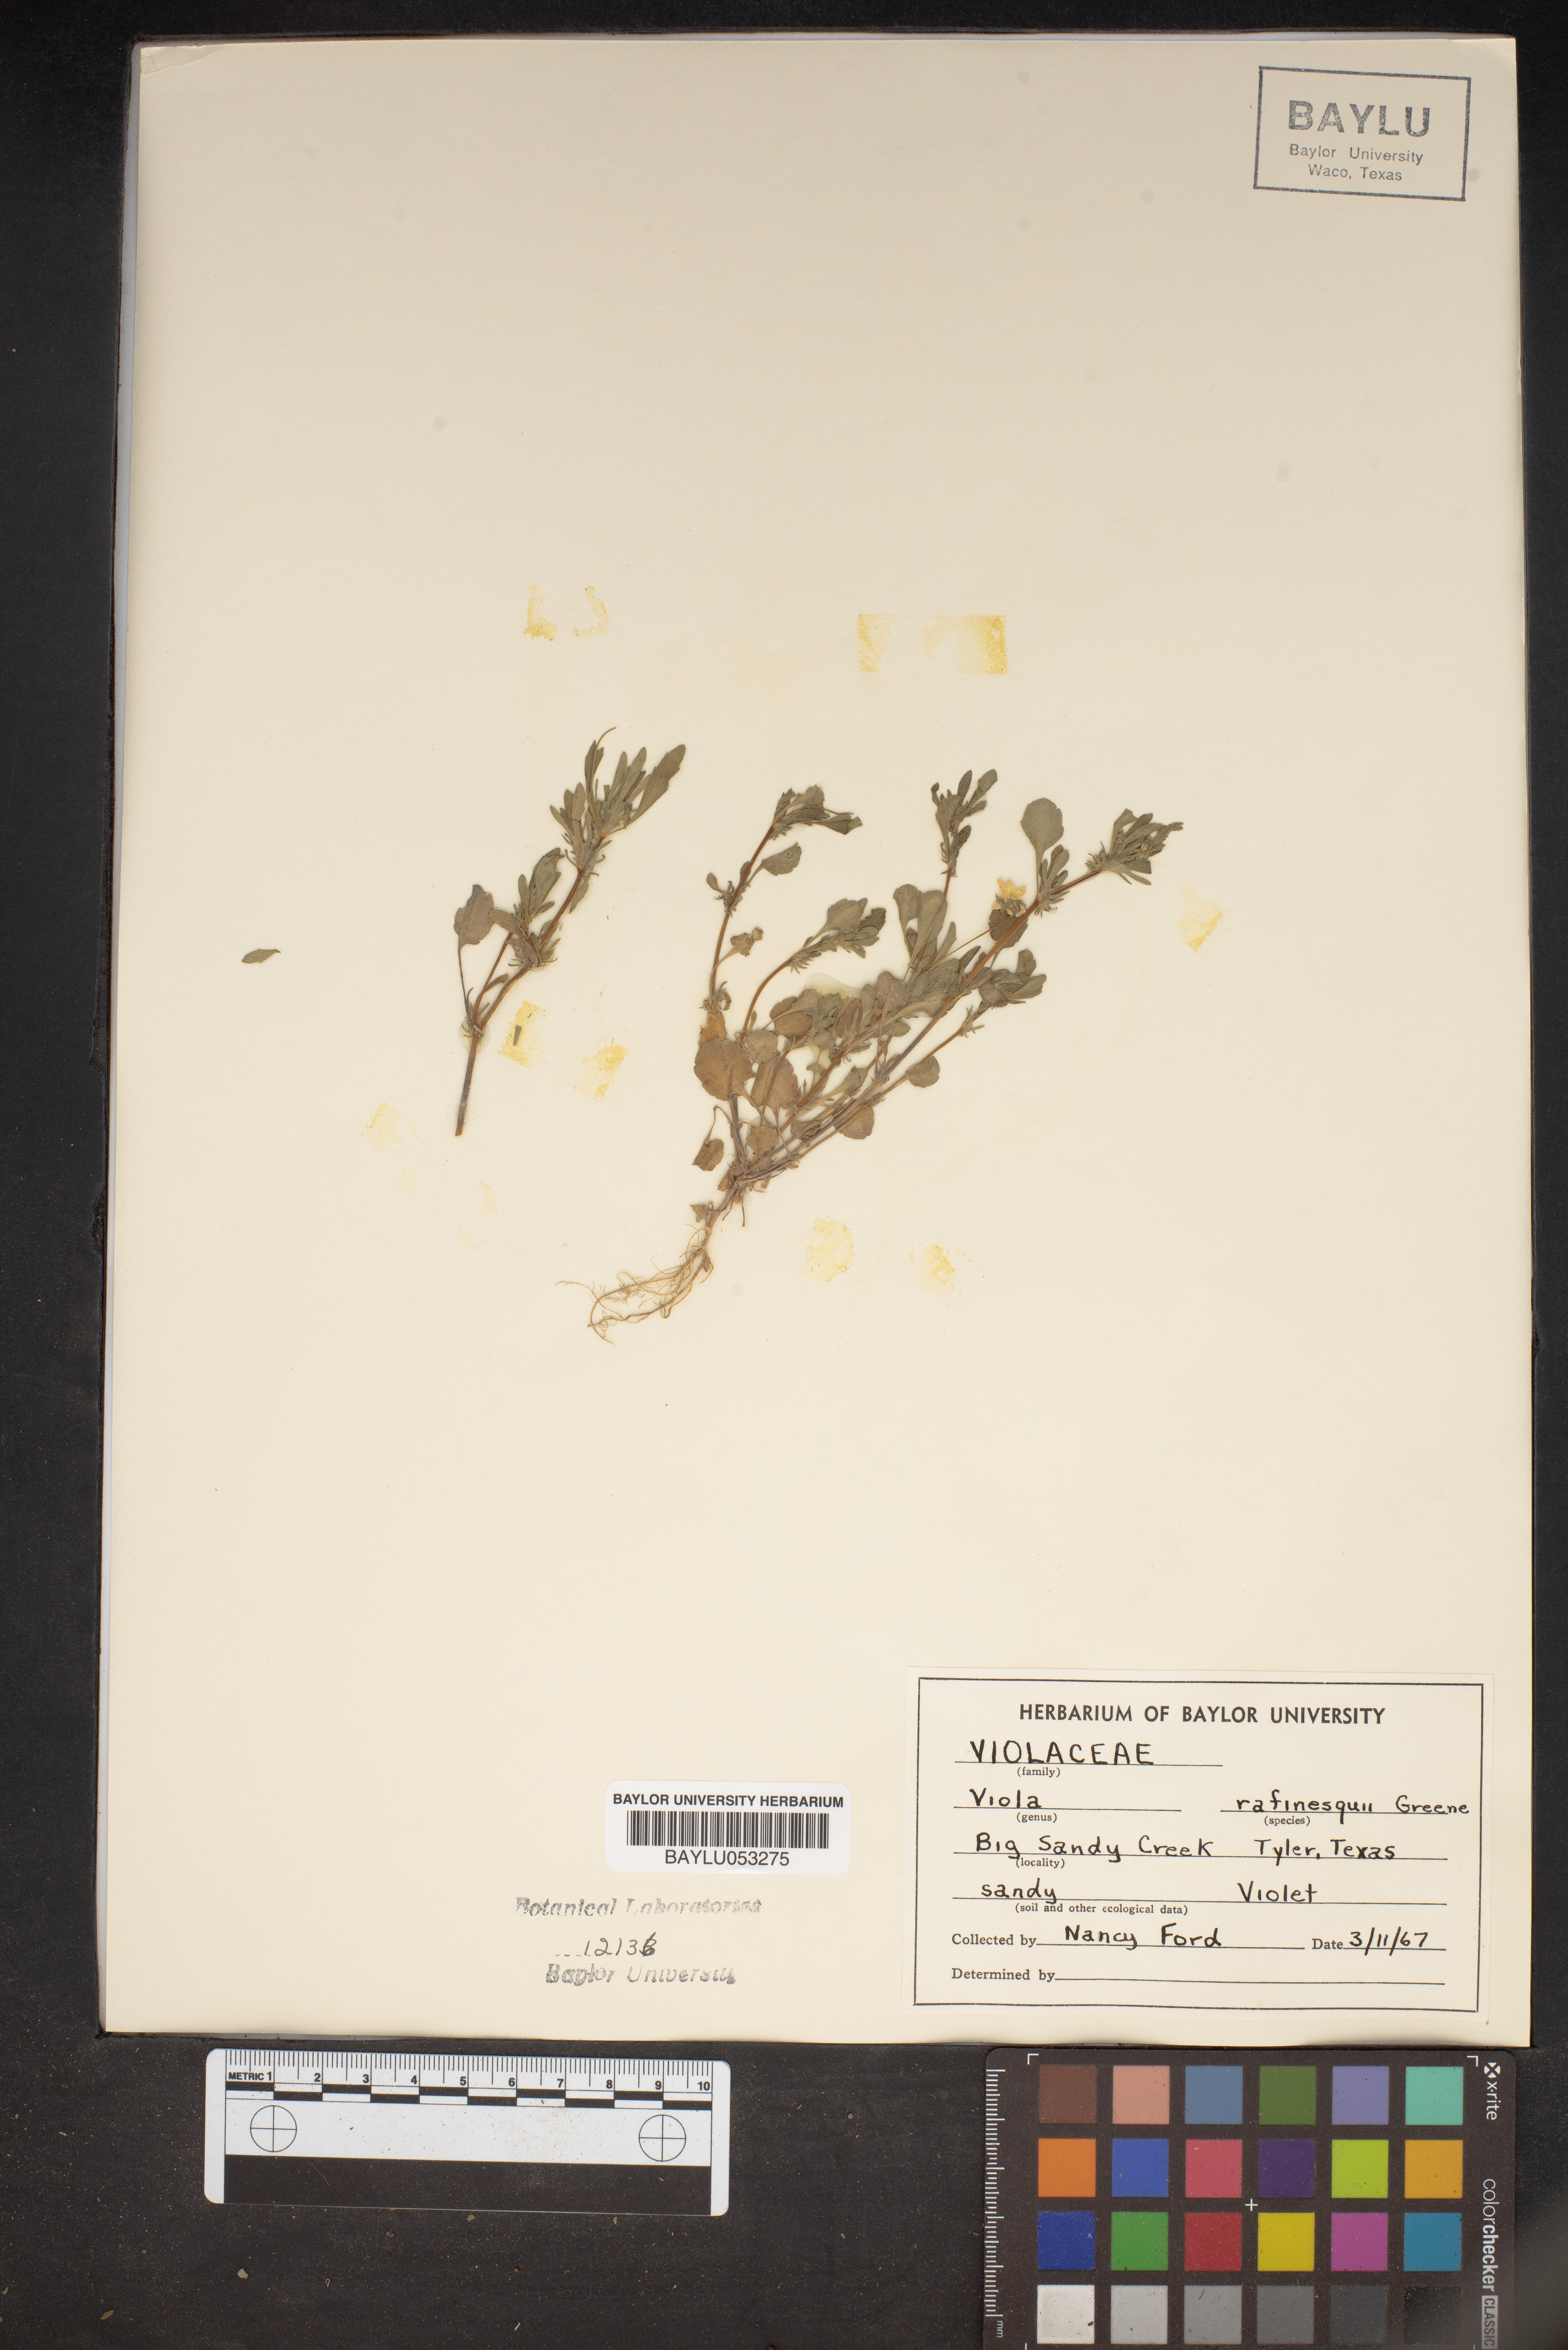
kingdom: Plantae
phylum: Tracheophyta
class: Magnoliopsida
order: Malpighiales
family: Violaceae
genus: Viola
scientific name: Viola rafinesquei
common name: American field pansy
